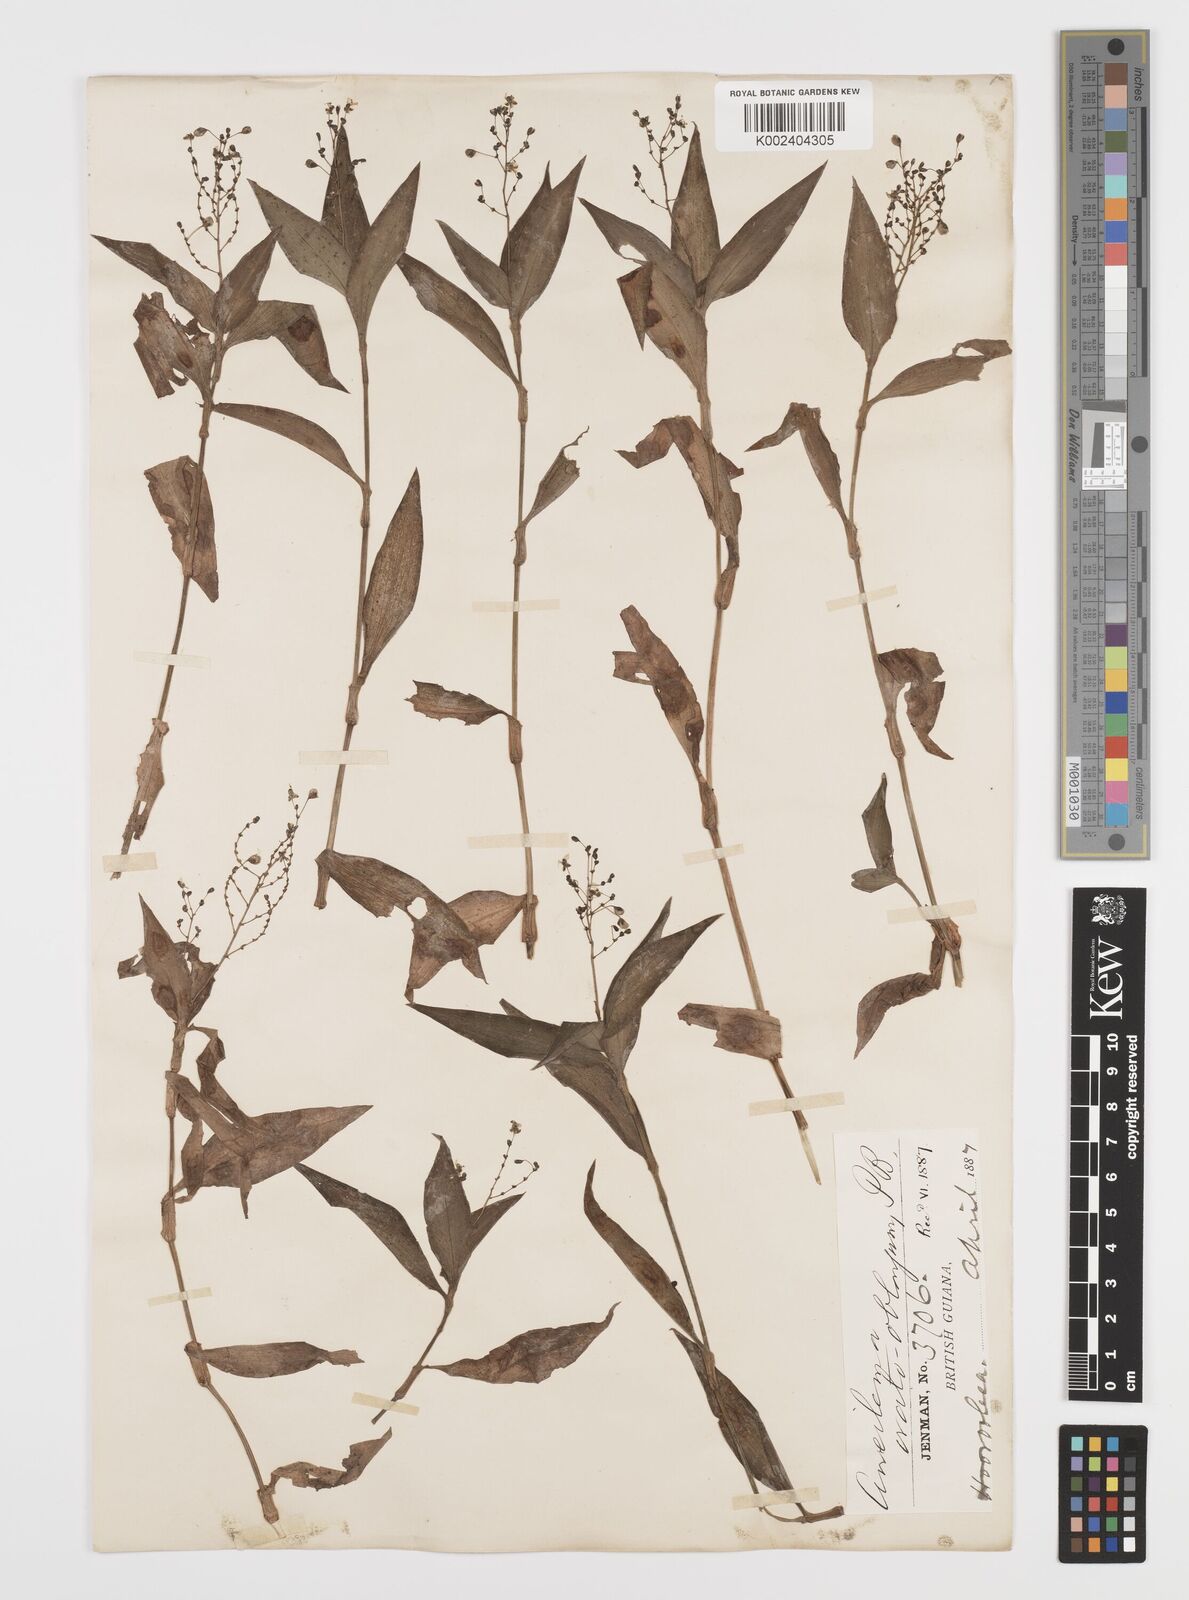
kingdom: Plantae
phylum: Tracheophyta
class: Liliopsida
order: Commelinales
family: Commelinaceae
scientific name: Commelinaceae
